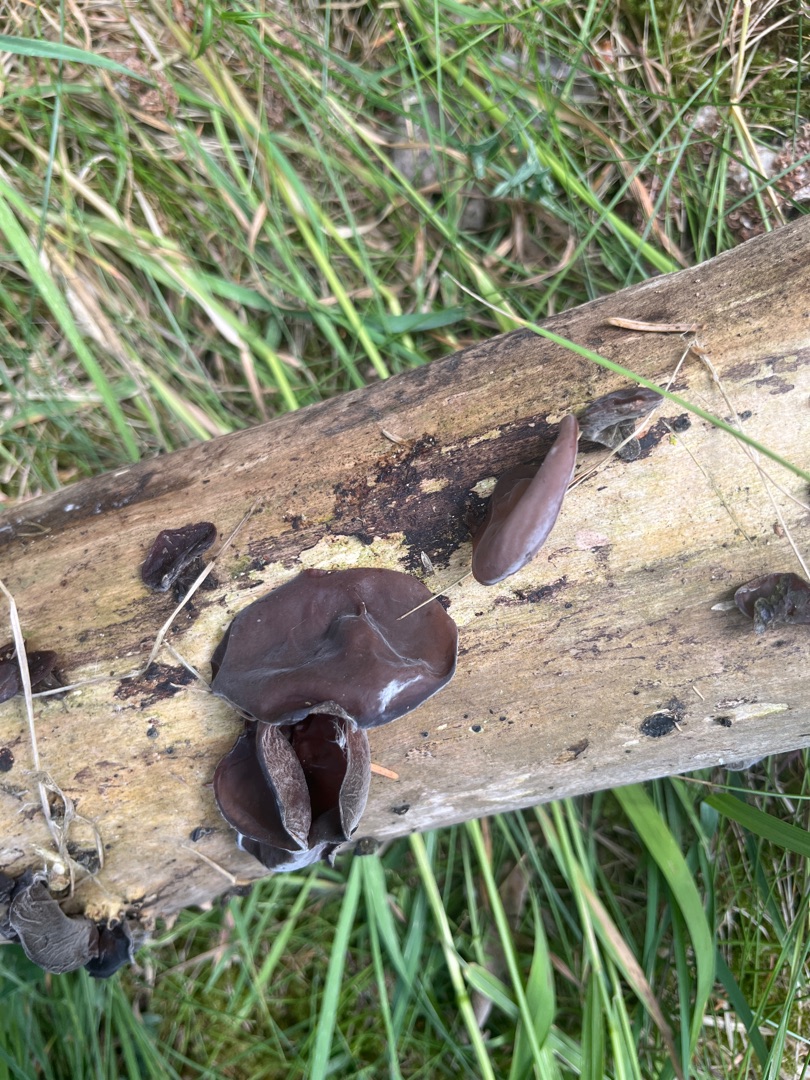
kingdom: Fungi
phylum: Basidiomycota
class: Agaricomycetes
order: Auriculariales
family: Auriculariaceae
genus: Auricularia
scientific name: Auricularia auricula-judae
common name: Almindelig judasøre
